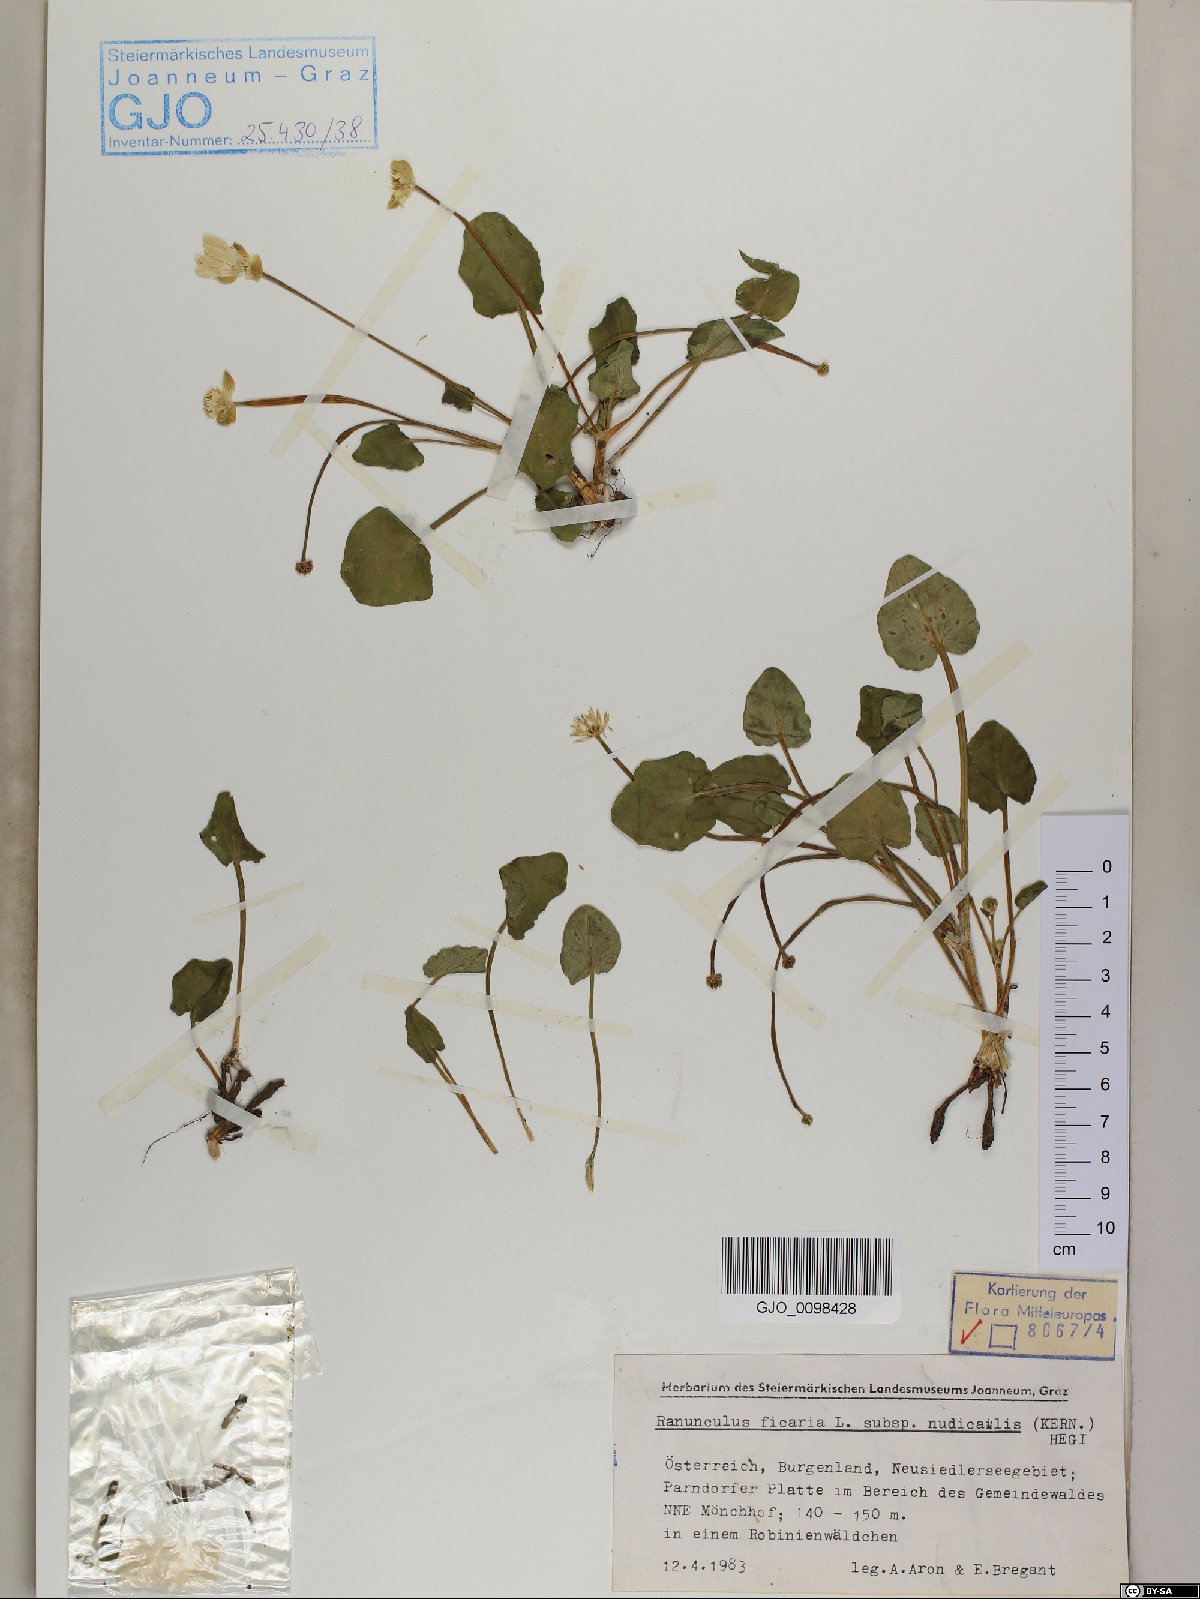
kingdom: Plantae
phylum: Tracheophyta
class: Magnoliopsida
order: Ranunculales
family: Ranunculaceae
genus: Ficaria
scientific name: Ficaria calthifolia
